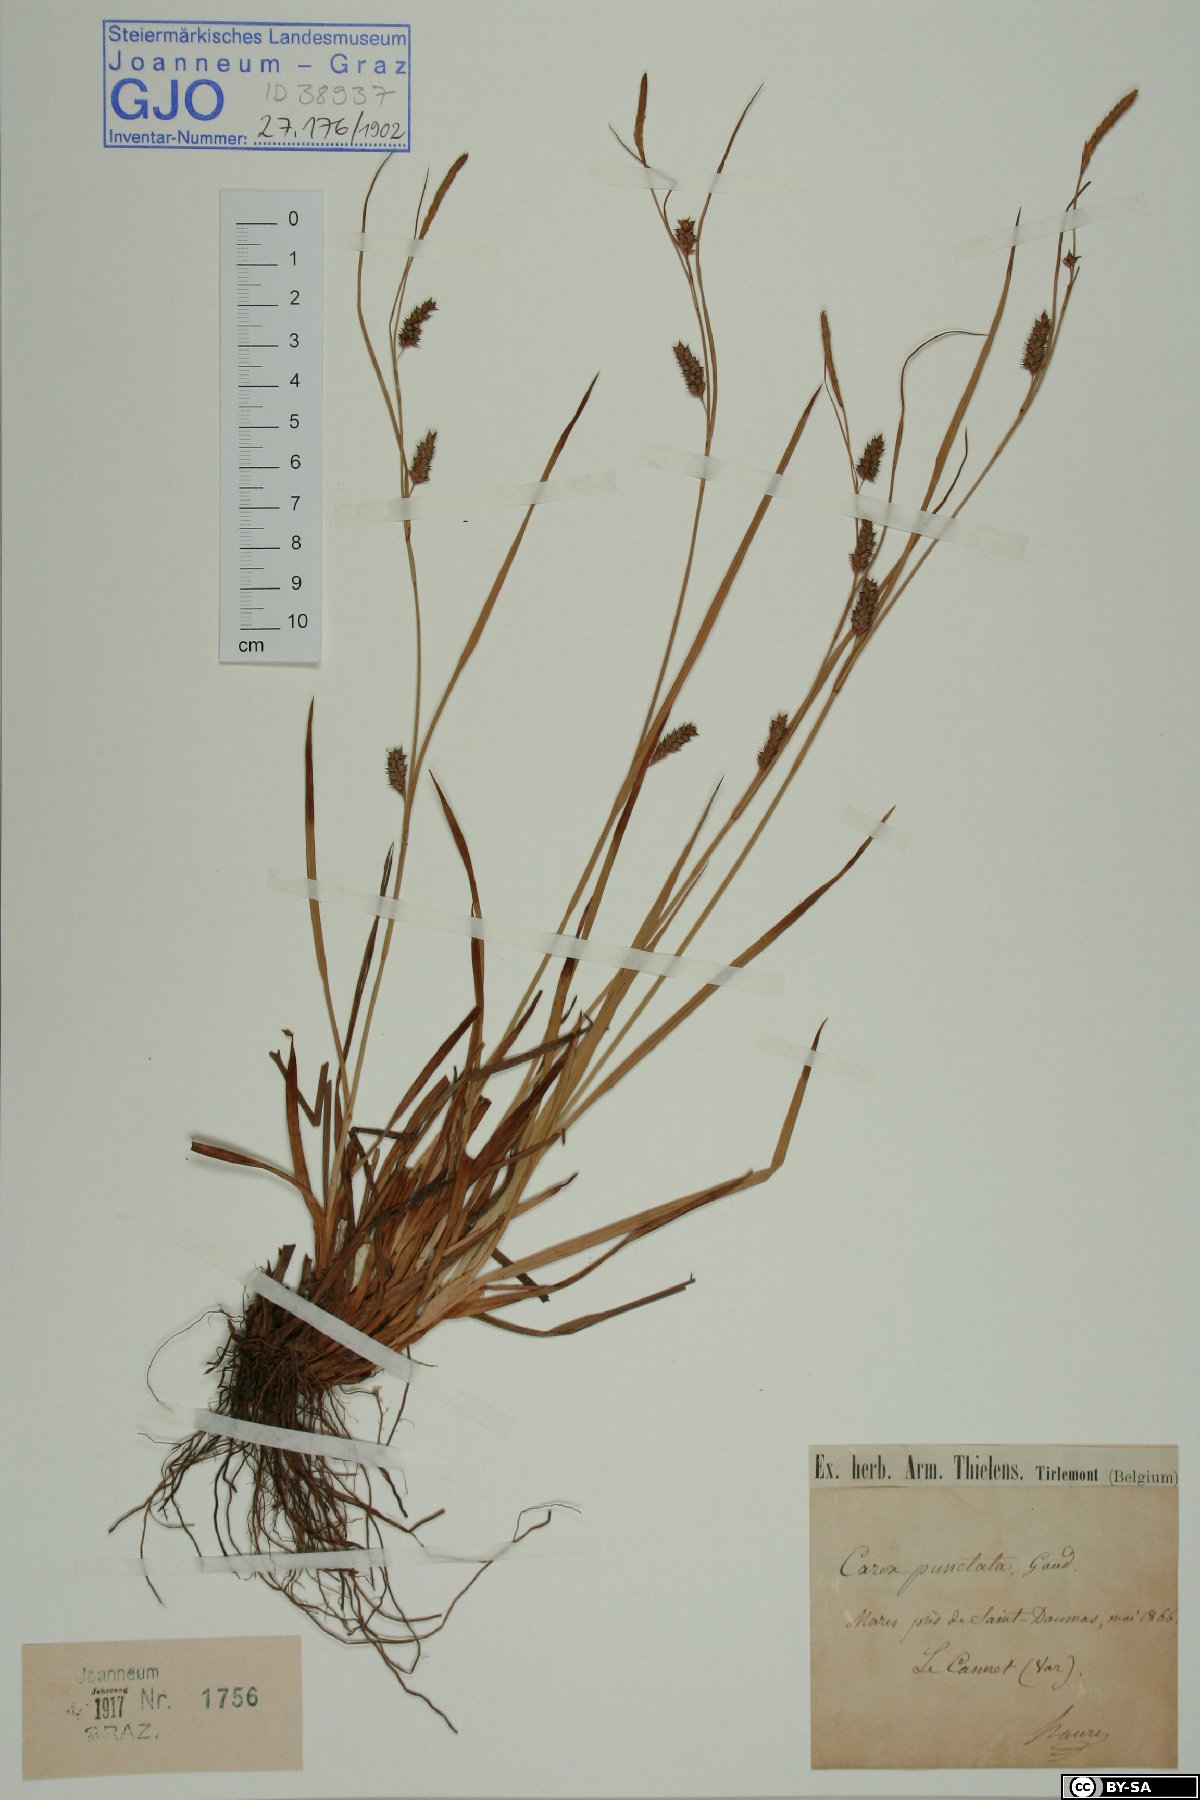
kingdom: Plantae
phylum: Tracheophyta
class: Liliopsida
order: Poales
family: Cyperaceae
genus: Carex
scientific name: Carex punctata
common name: Dotted sedge
